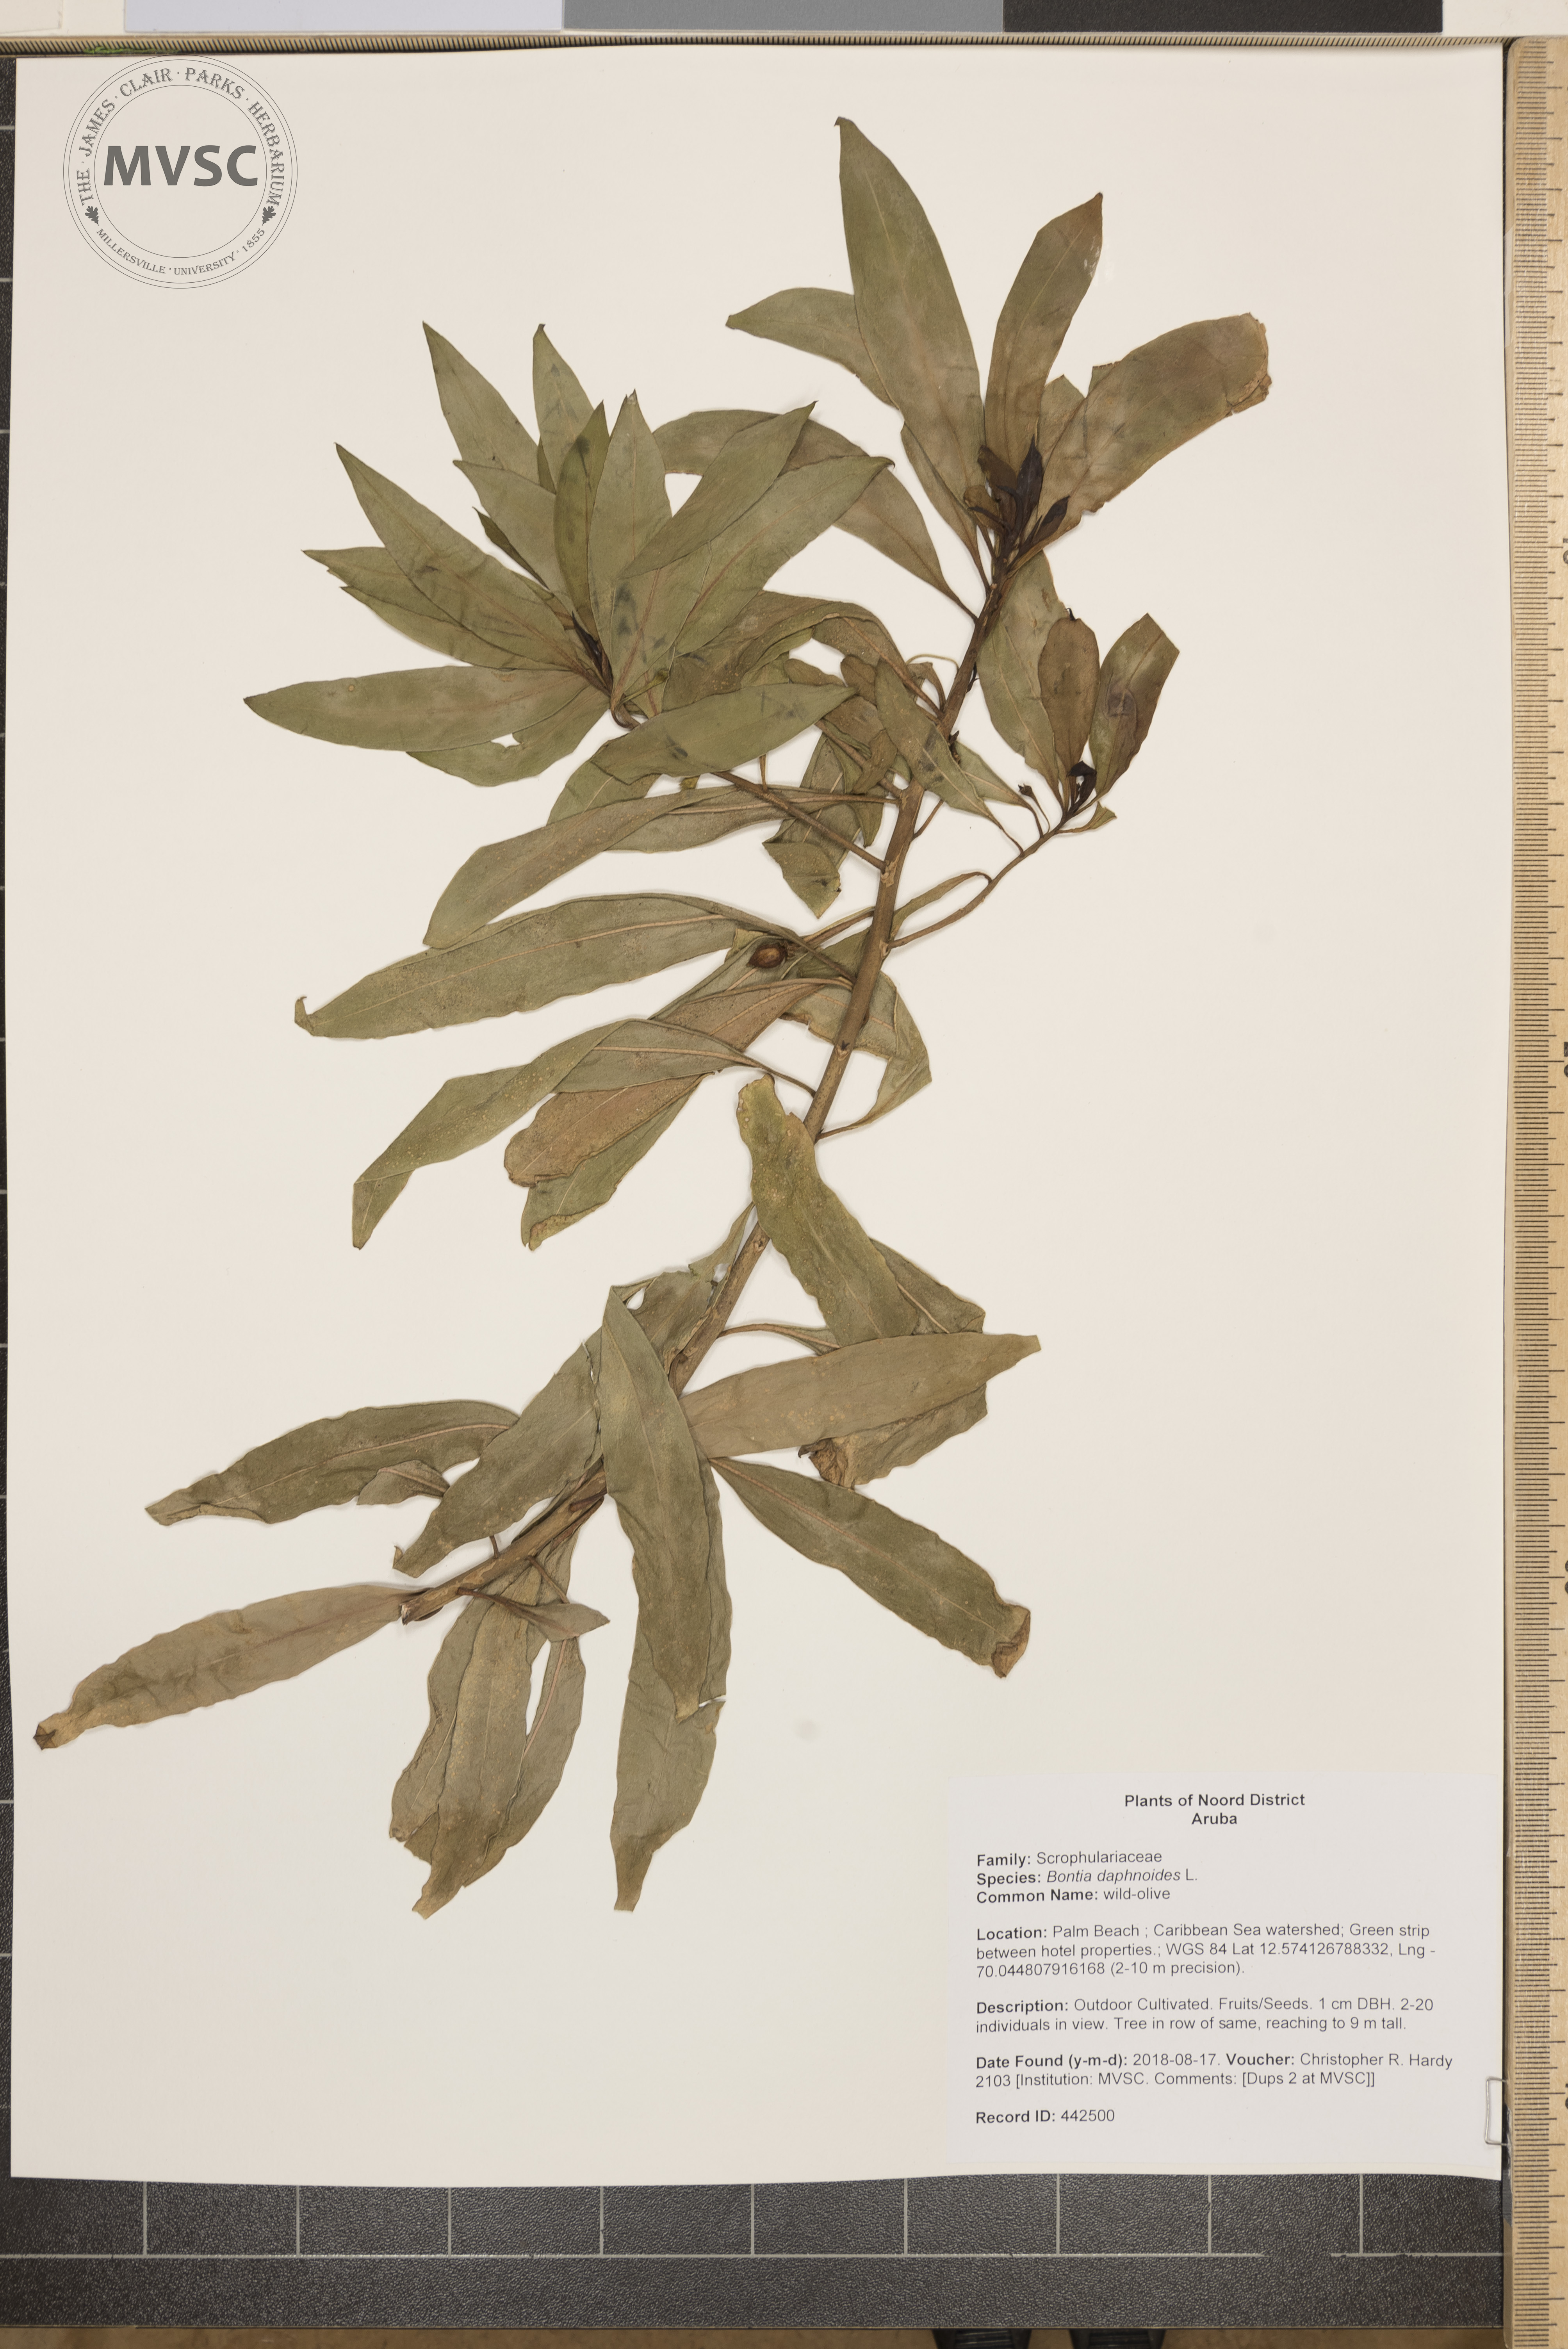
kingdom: Plantae
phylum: Tracheophyta
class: Magnoliopsida
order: Lamiales
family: Scrophulariaceae
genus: Bontia
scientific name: Bontia daphnoides
